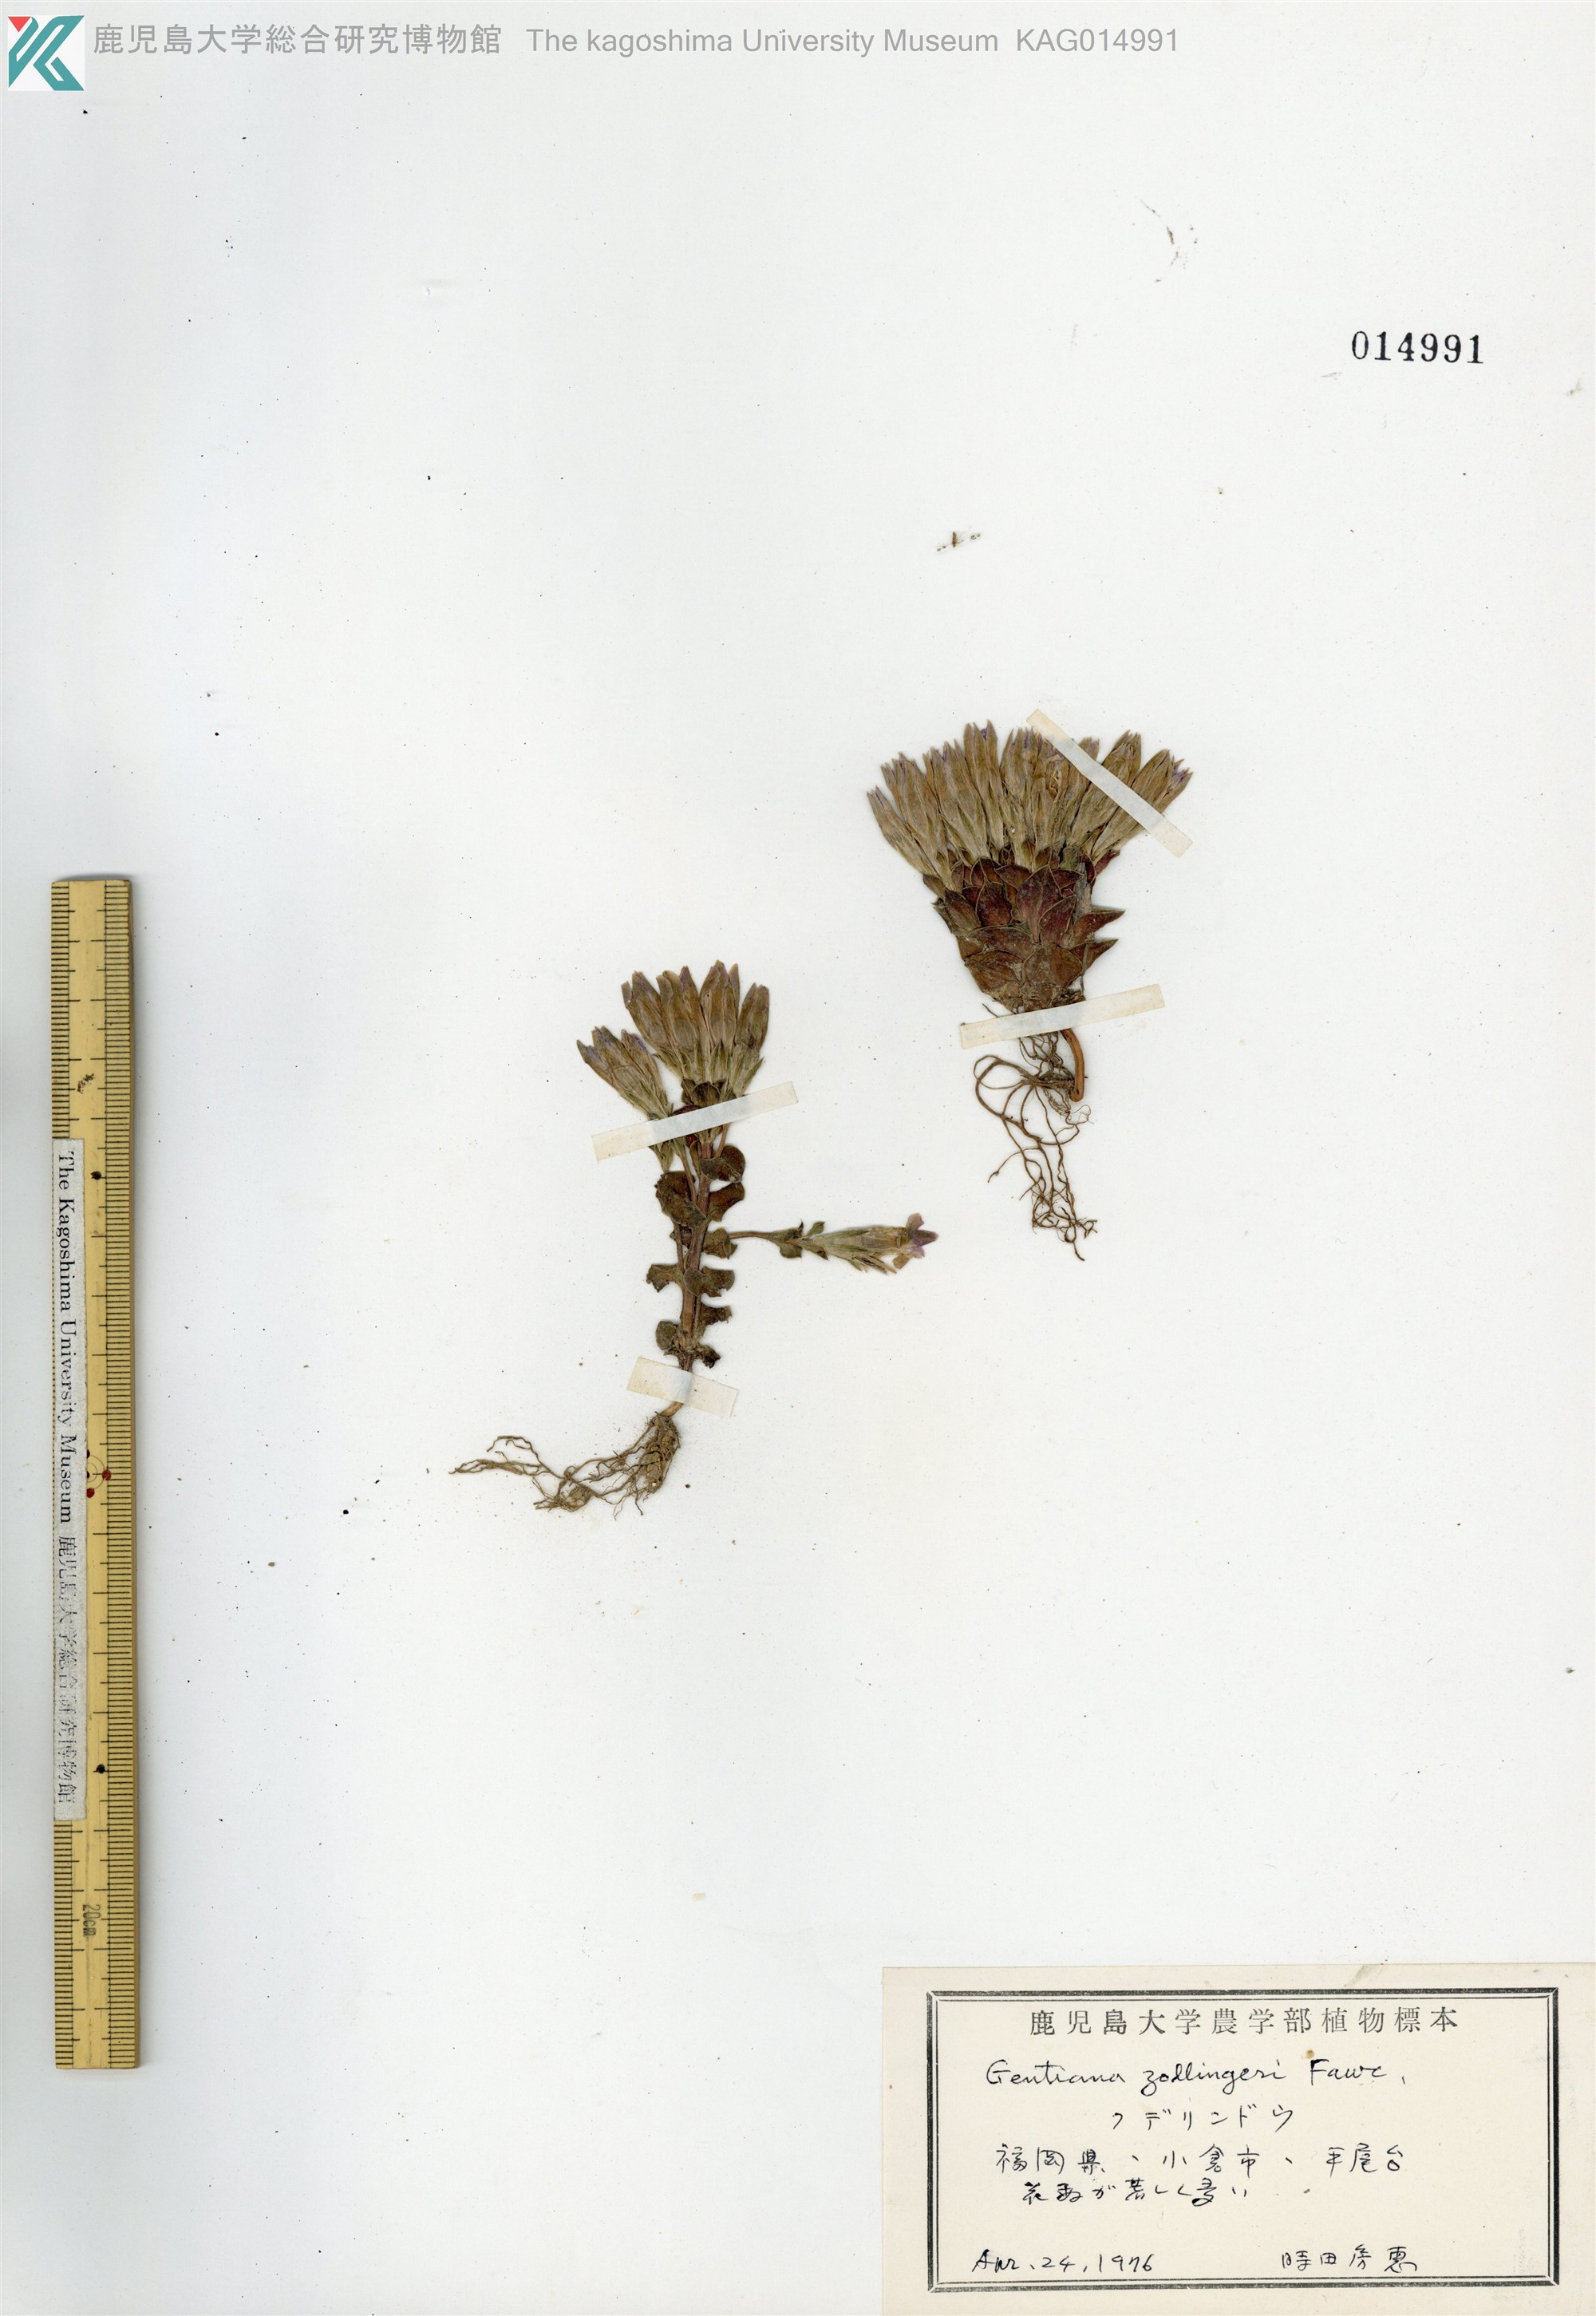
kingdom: Plantae
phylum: Tracheophyta
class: Magnoliopsida
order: Gentianales
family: Gentianaceae
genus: Gentiana
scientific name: Gentiana zollingeri
